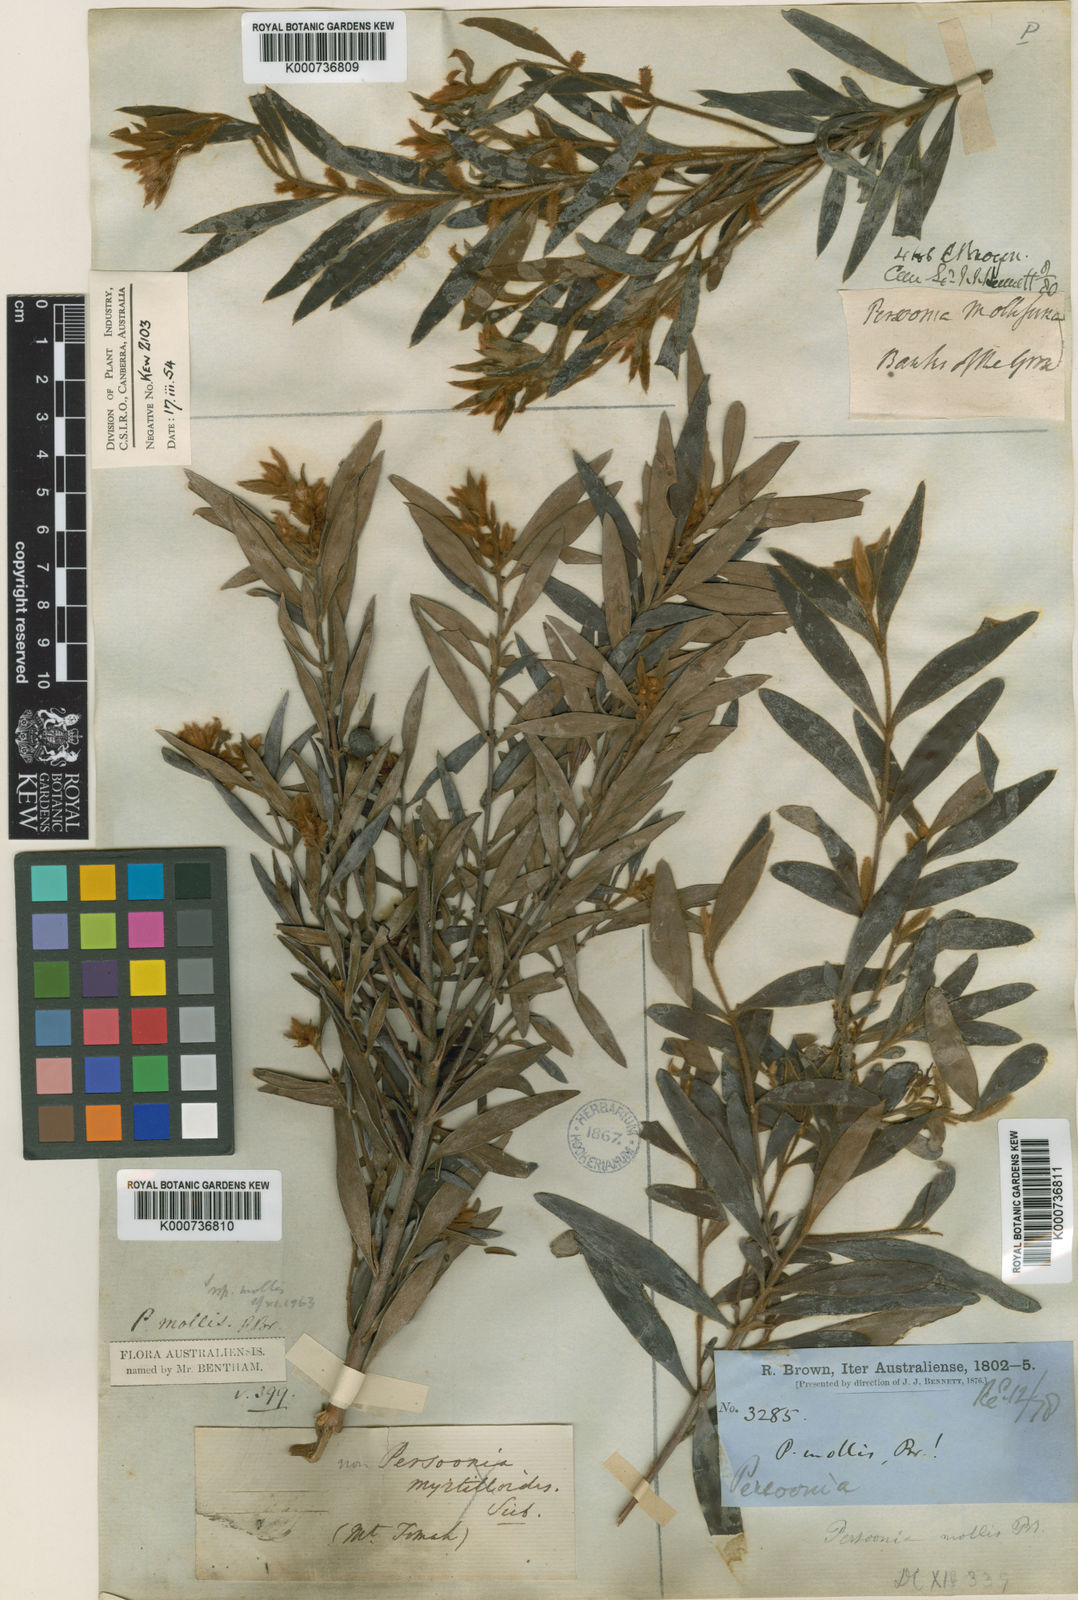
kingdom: Plantae
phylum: Tracheophyta
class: Magnoliopsida
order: Proteales
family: Proteaceae
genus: Persoonia
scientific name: Persoonia mollis
